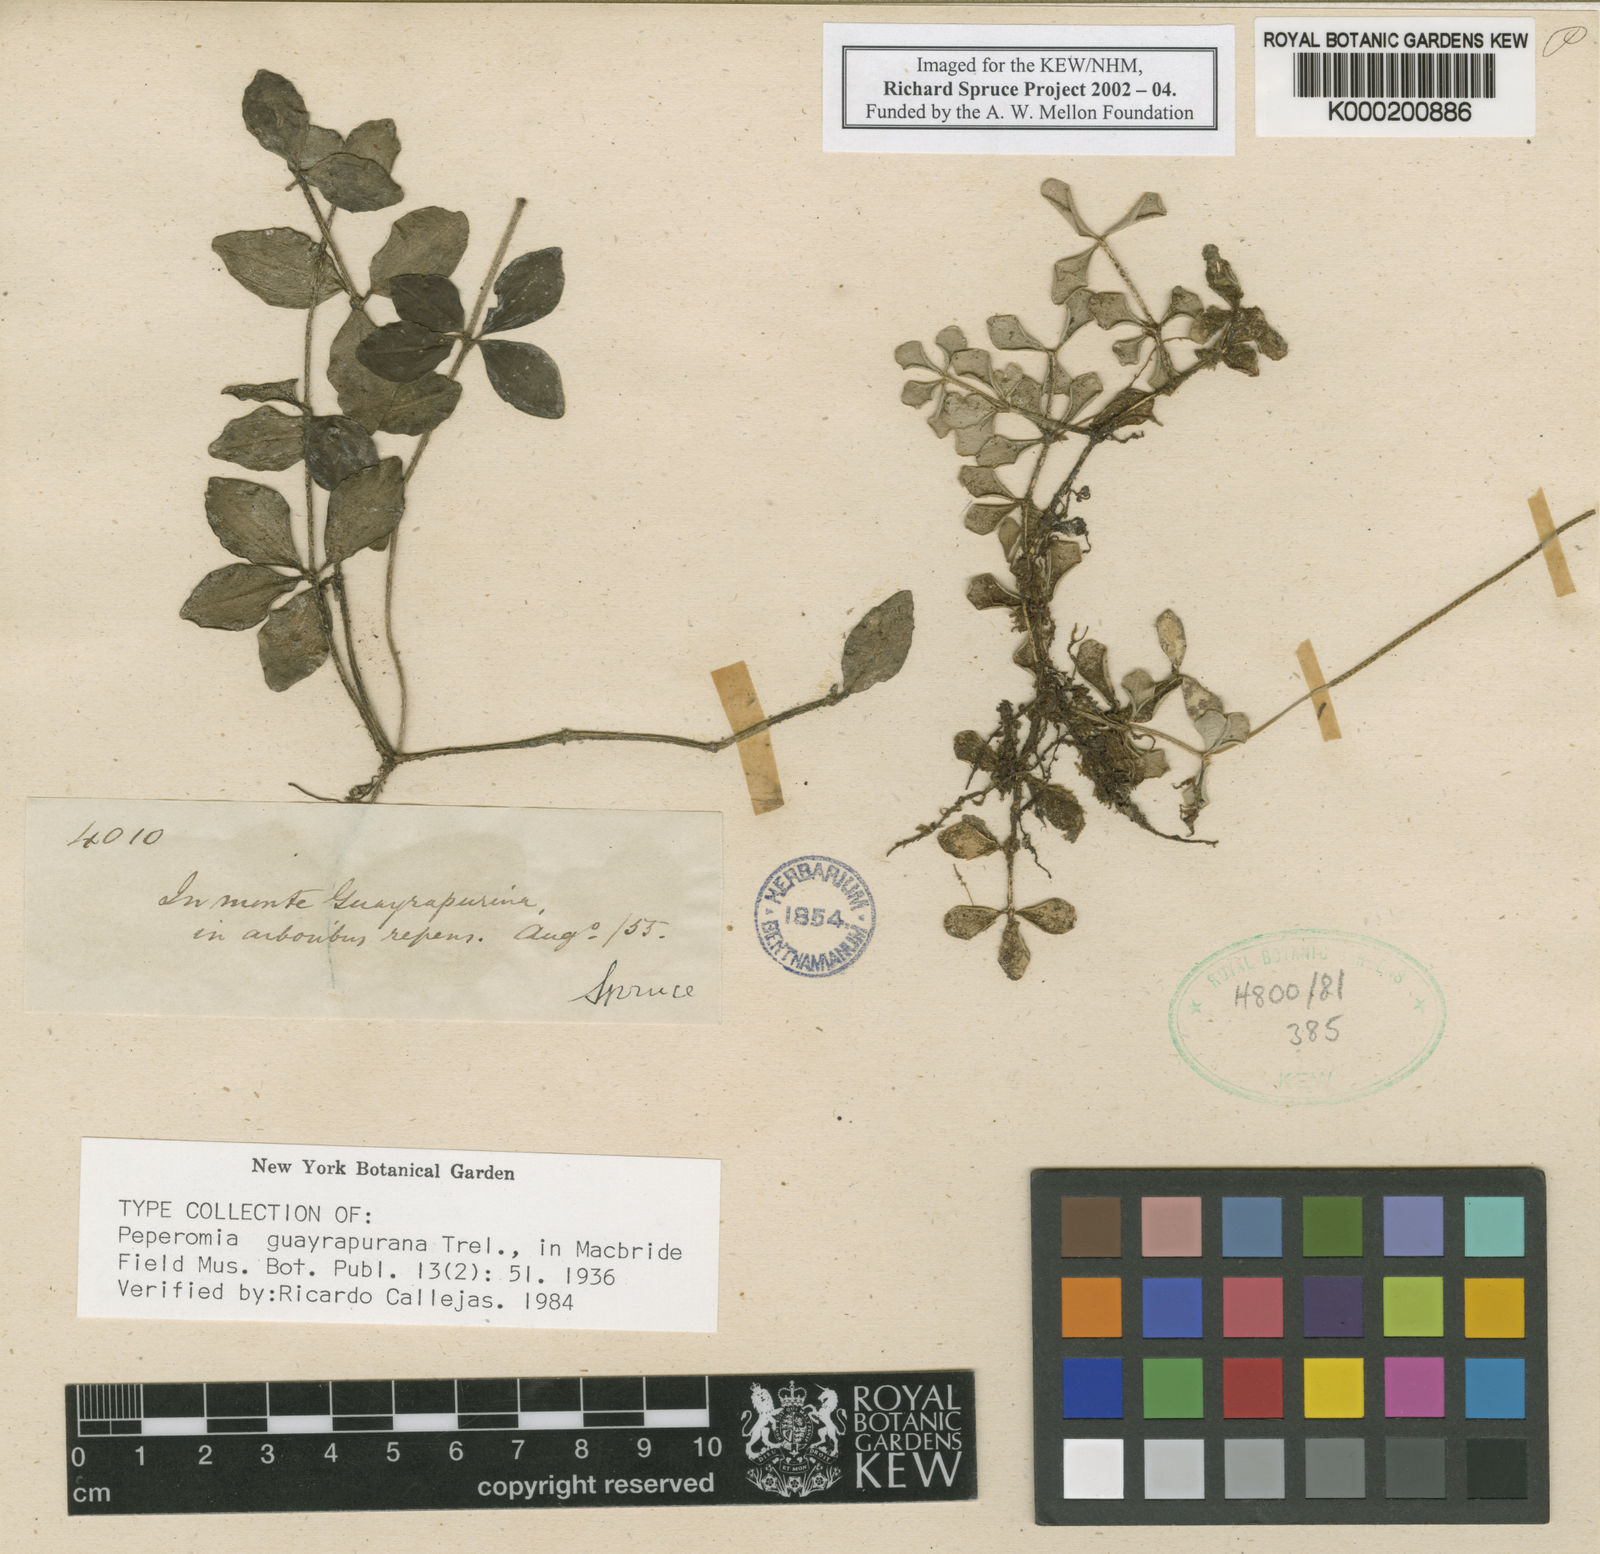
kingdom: Plantae
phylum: Tracheophyta
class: Magnoliopsida
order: Piperales
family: Piperaceae
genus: Peperomia
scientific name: Peperomia guayrapurana
